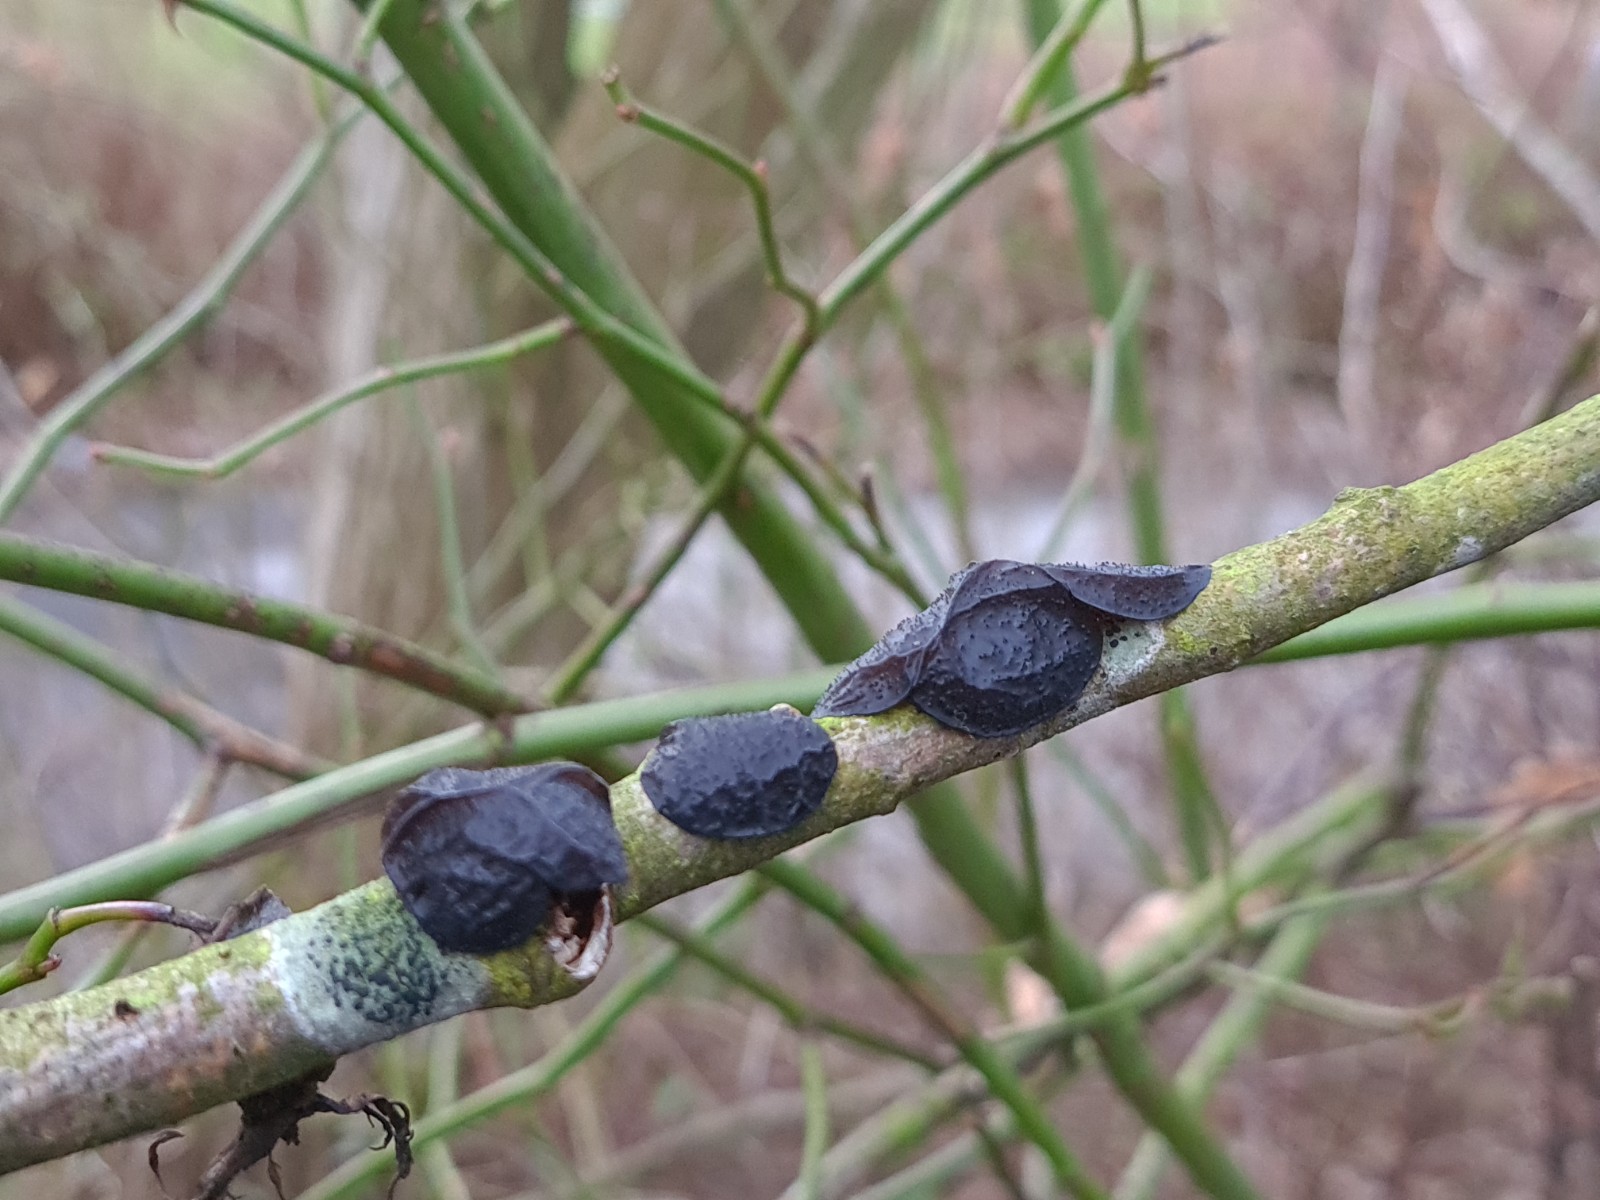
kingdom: Fungi
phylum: Basidiomycota
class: Agaricomycetes
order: Auriculariales
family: Auriculariaceae
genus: Exidia
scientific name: Exidia glandulosa
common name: ege-bævretop
